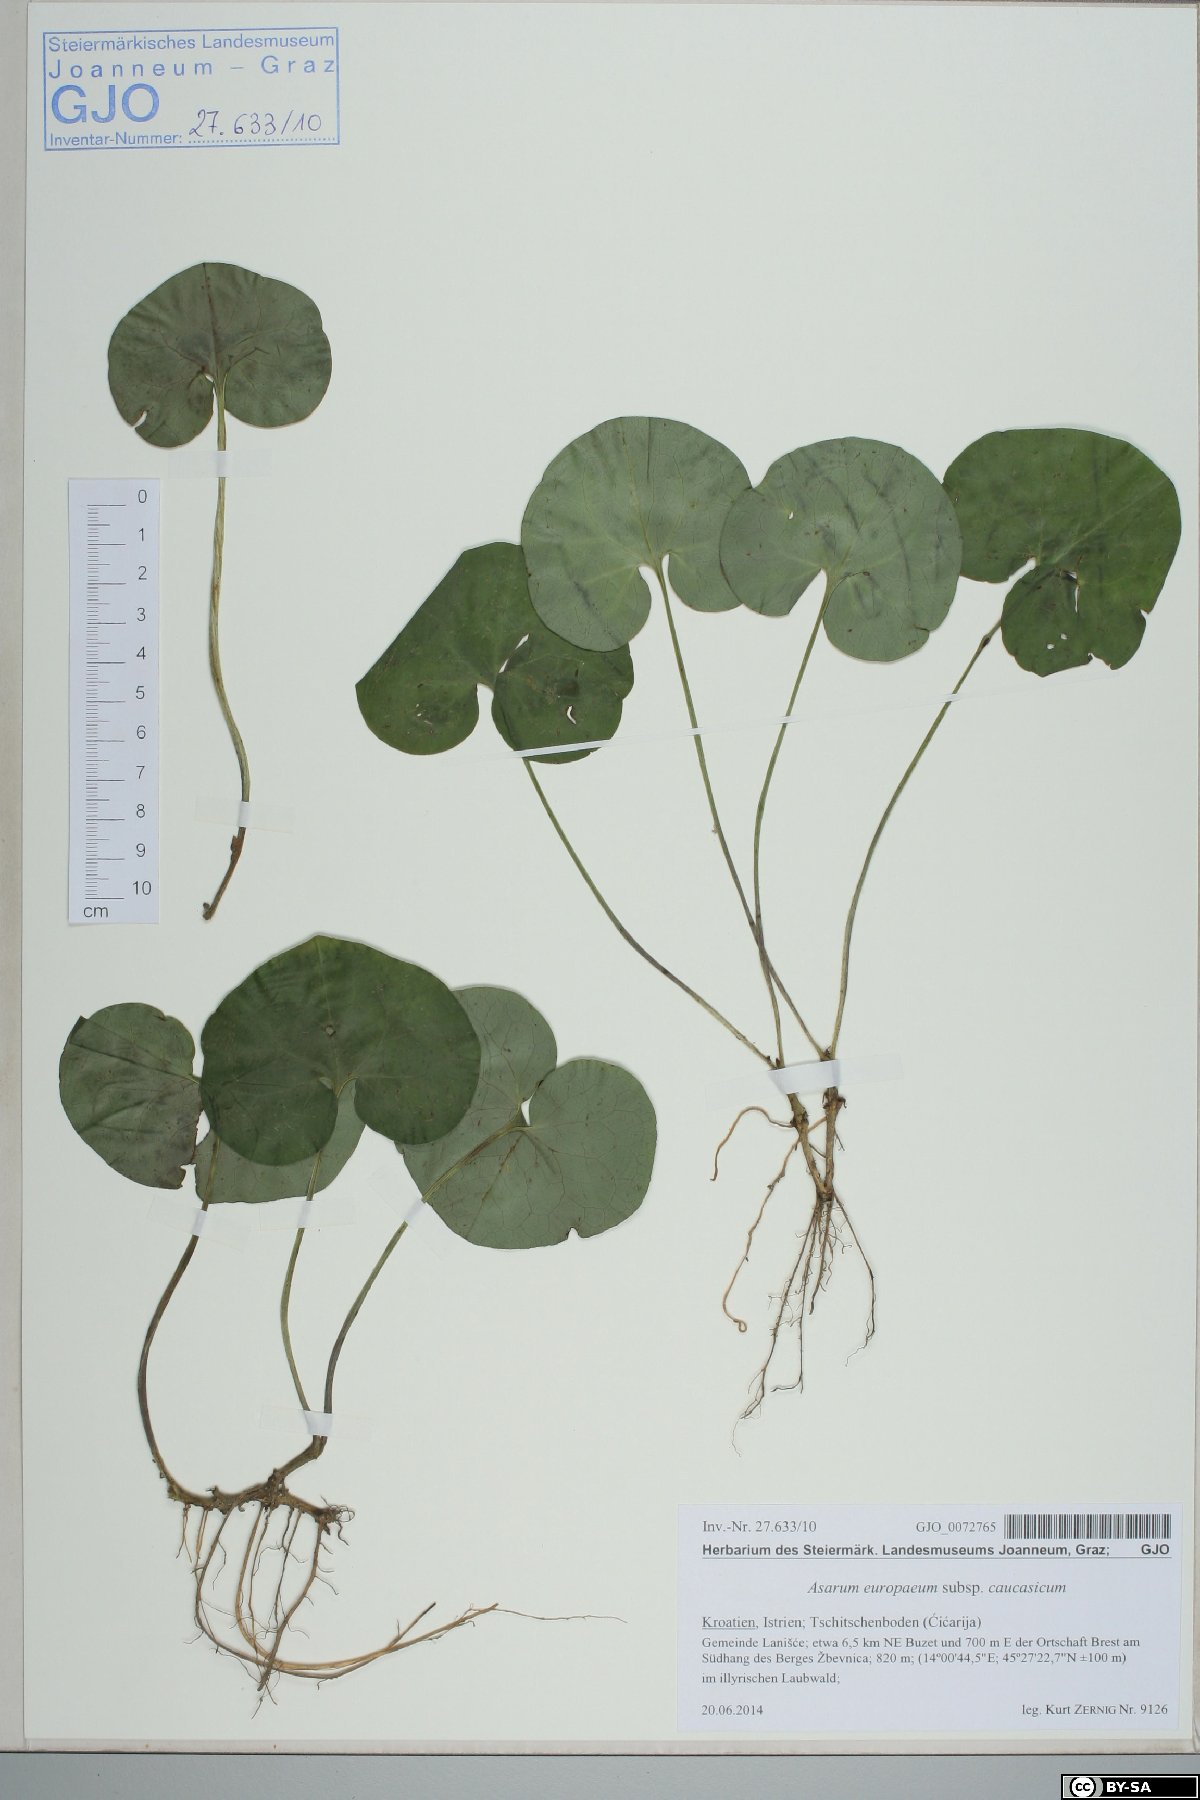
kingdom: Plantae
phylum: Tracheophyta
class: Magnoliopsida
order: Piperales
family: Aristolochiaceae
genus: Asarum
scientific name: Asarum europaeum
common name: Asarabacca
